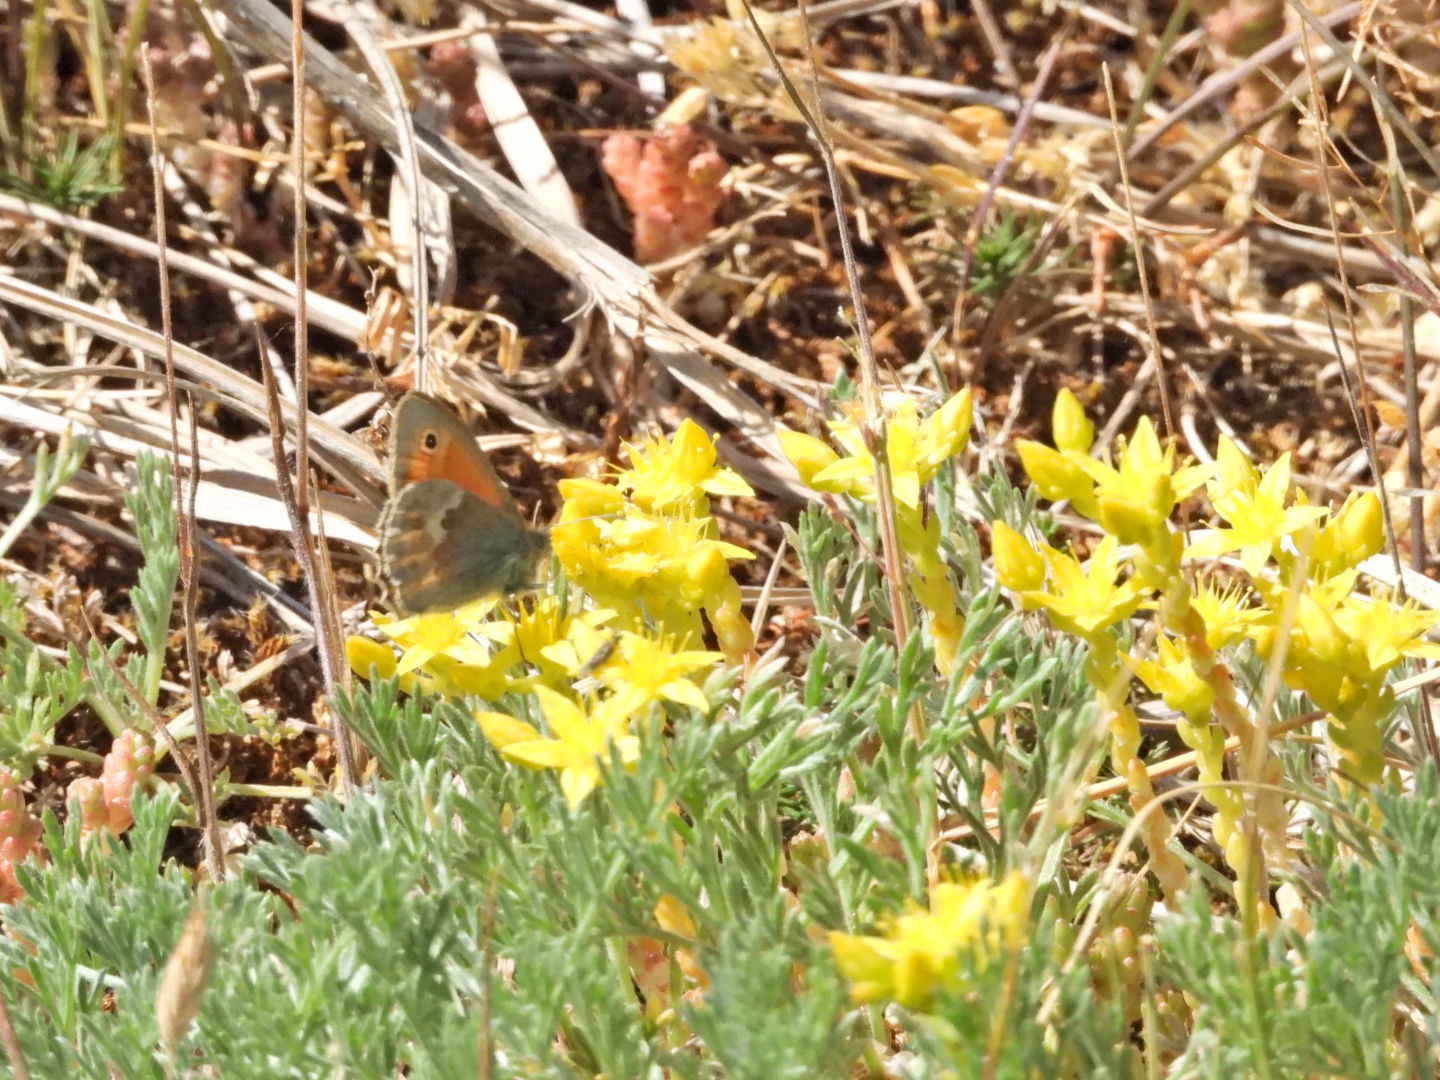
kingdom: Animalia
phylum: Arthropoda
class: Insecta
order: Lepidoptera
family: Nymphalidae
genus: Coenonympha
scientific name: Coenonympha pamphilus
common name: Okkergul randøje
